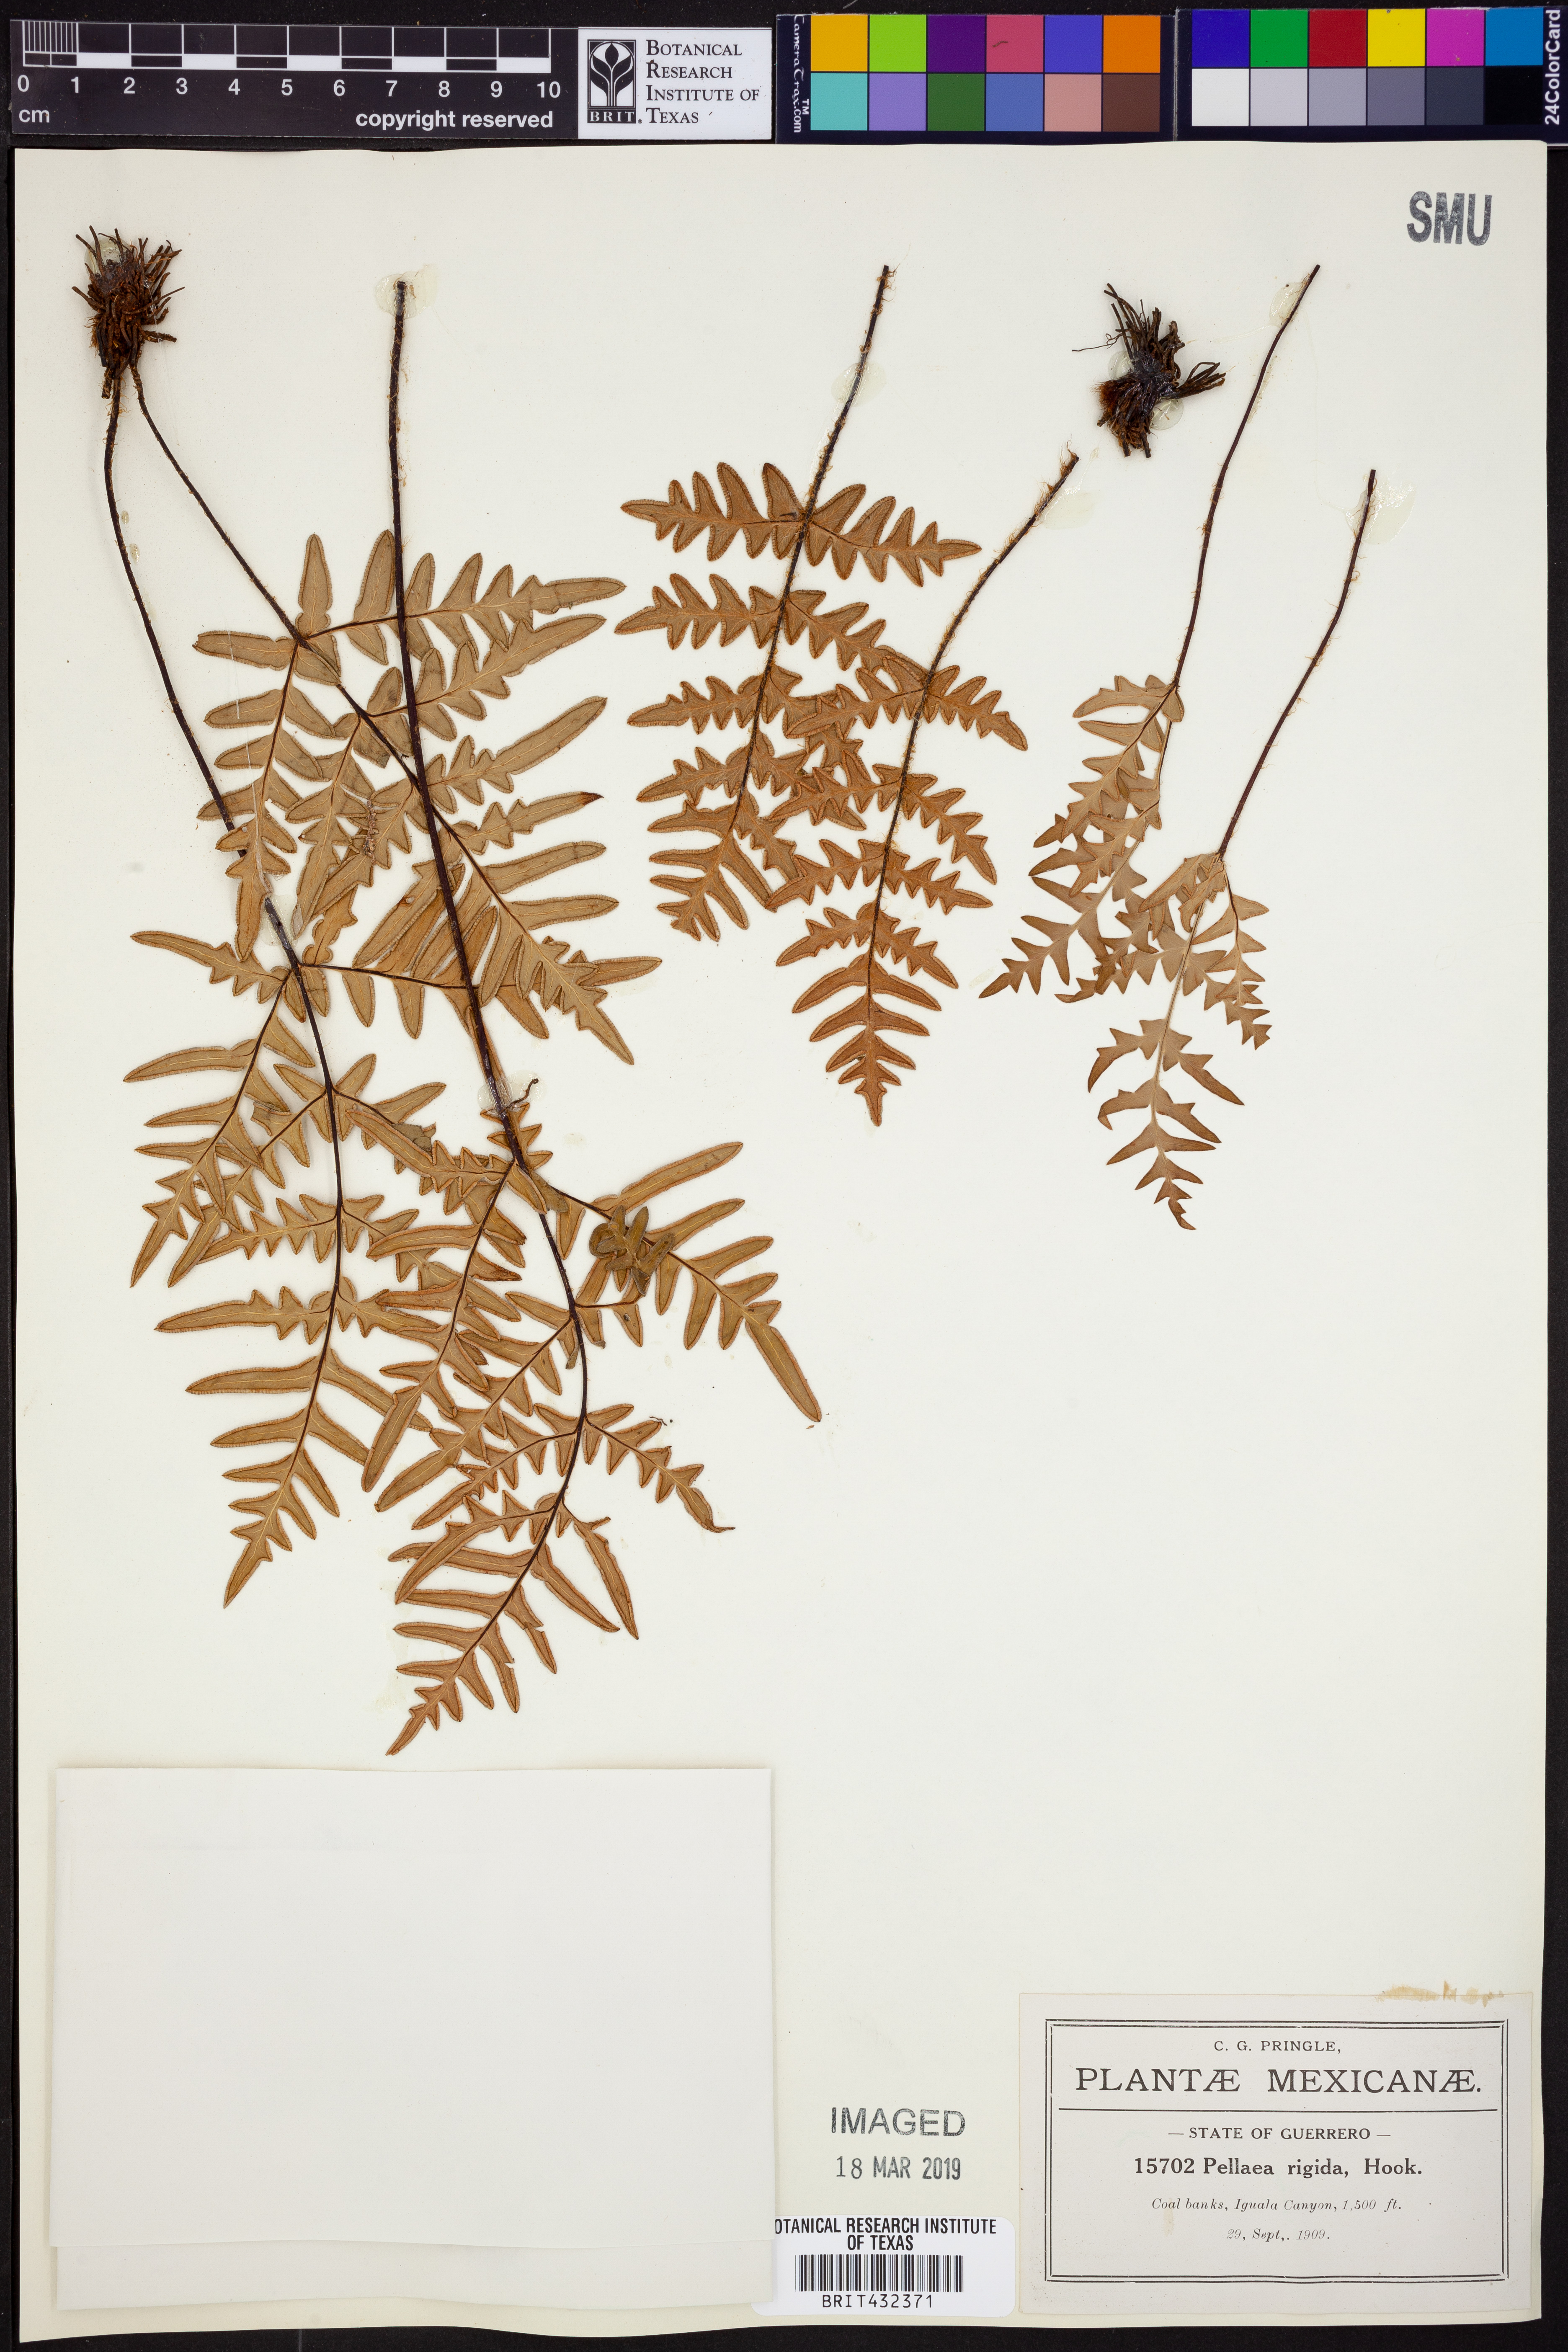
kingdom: Plantae
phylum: Tracheophyta
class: Polypodiopsida
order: Polypodiales
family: Pteridaceae
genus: Cheiloplecton
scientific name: Cheiloplecton rigidum
